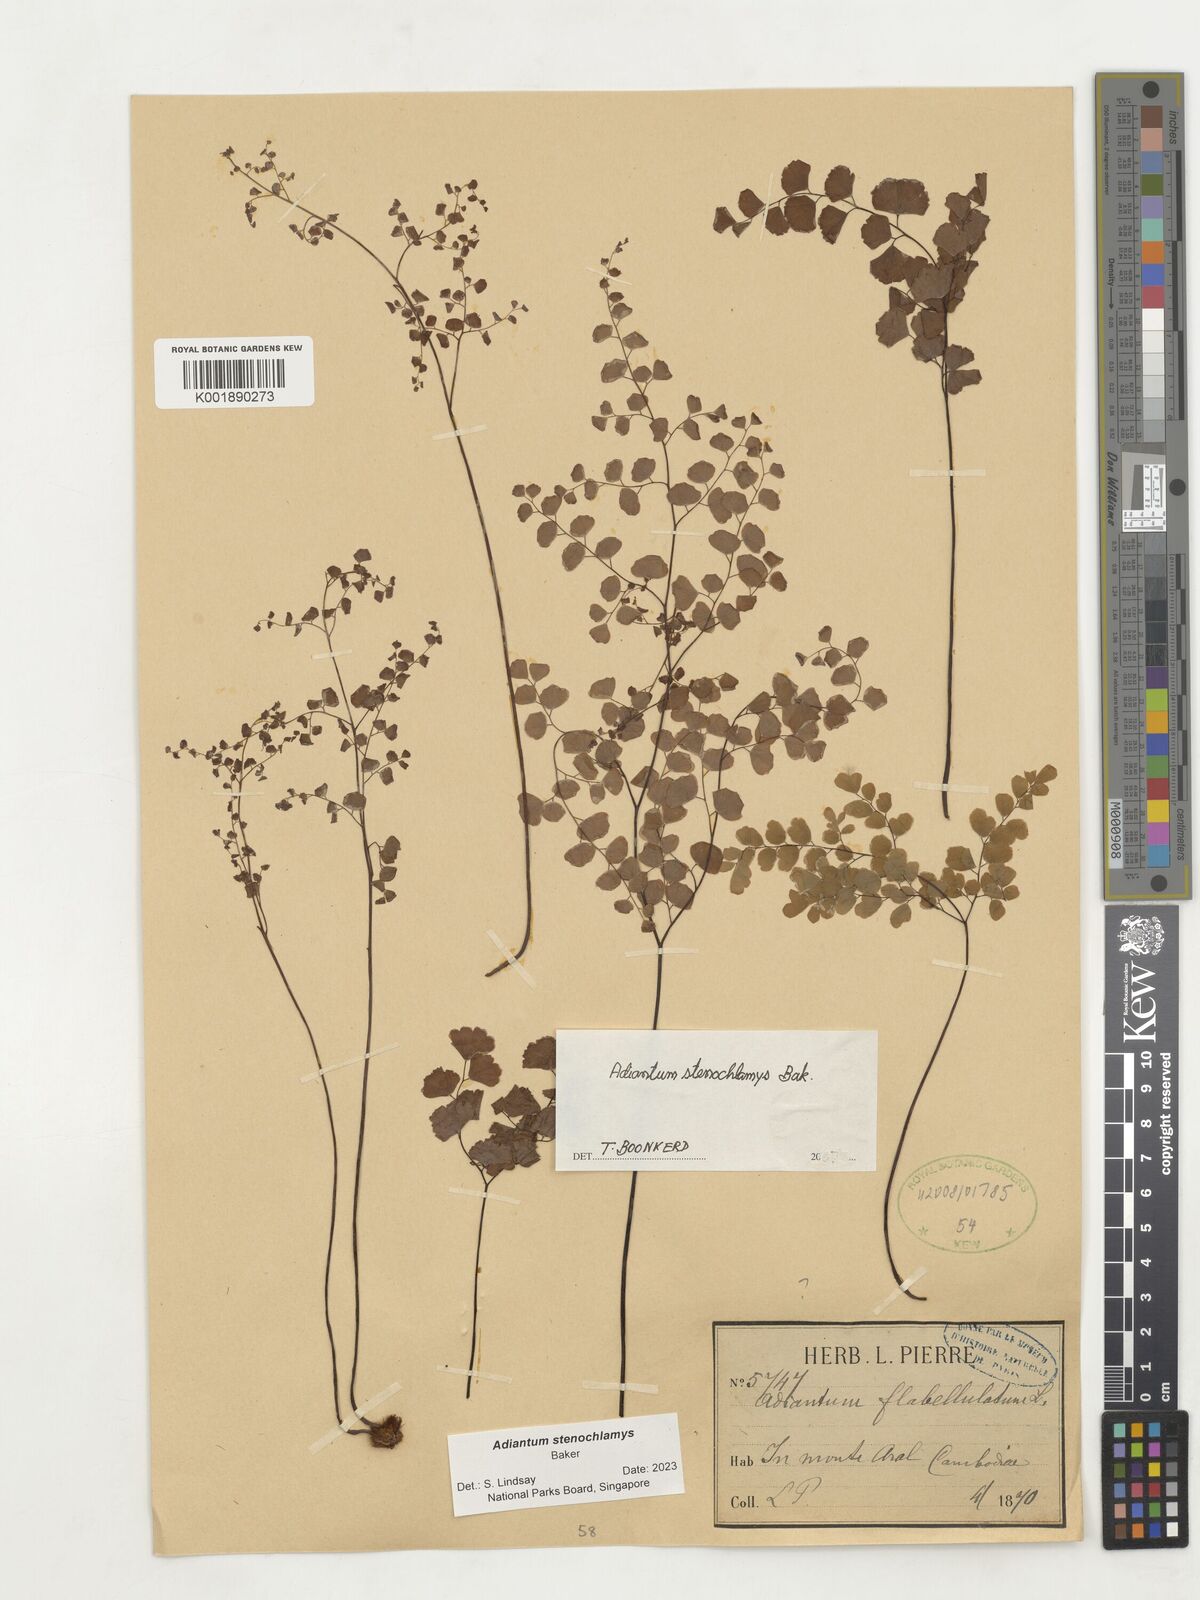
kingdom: Plantae
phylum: Tracheophyta
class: Polypodiopsida
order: Polypodiales
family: Pteridaceae
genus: Adiantum
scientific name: Adiantum stenochlamys
